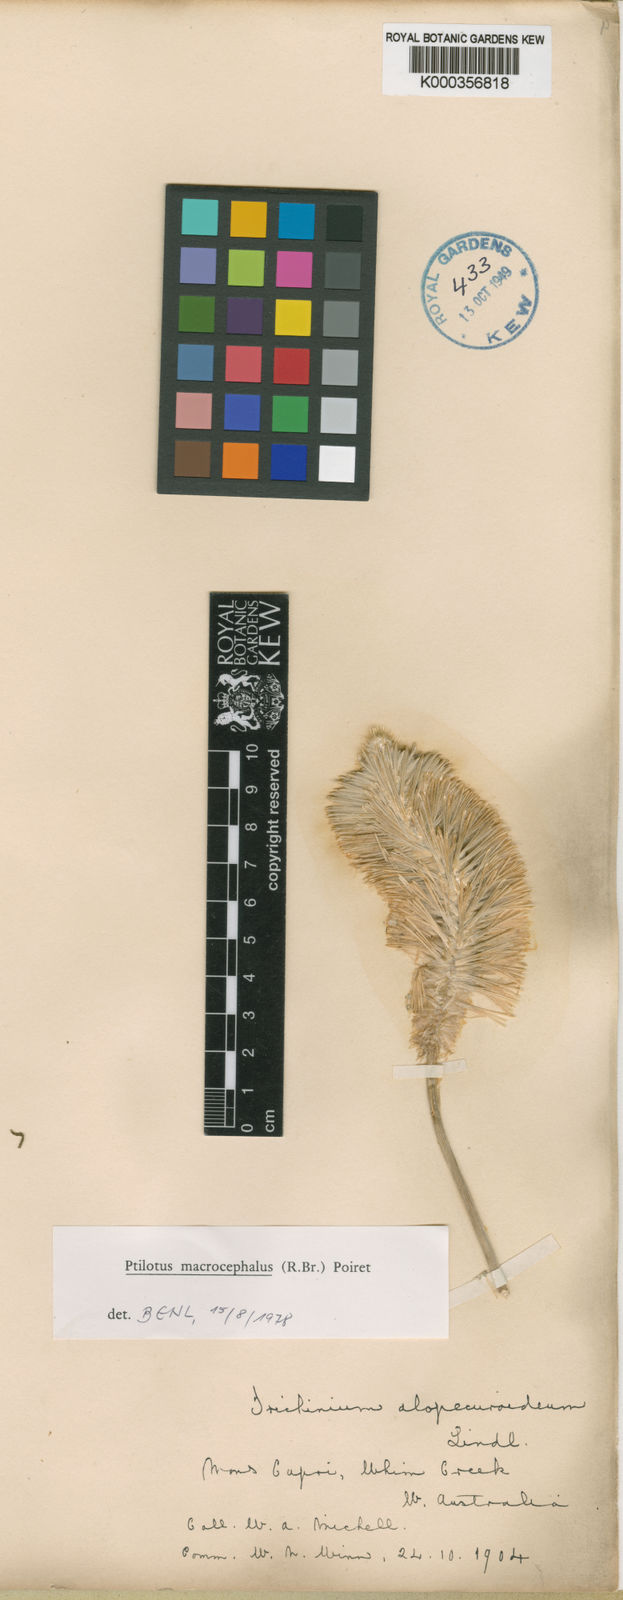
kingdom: Plantae
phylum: Tracheophyta
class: Magnoliopsida
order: Caryophyllales
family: Amaranthaceae
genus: Ptilotus
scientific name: Ptilotus macrocephalus
